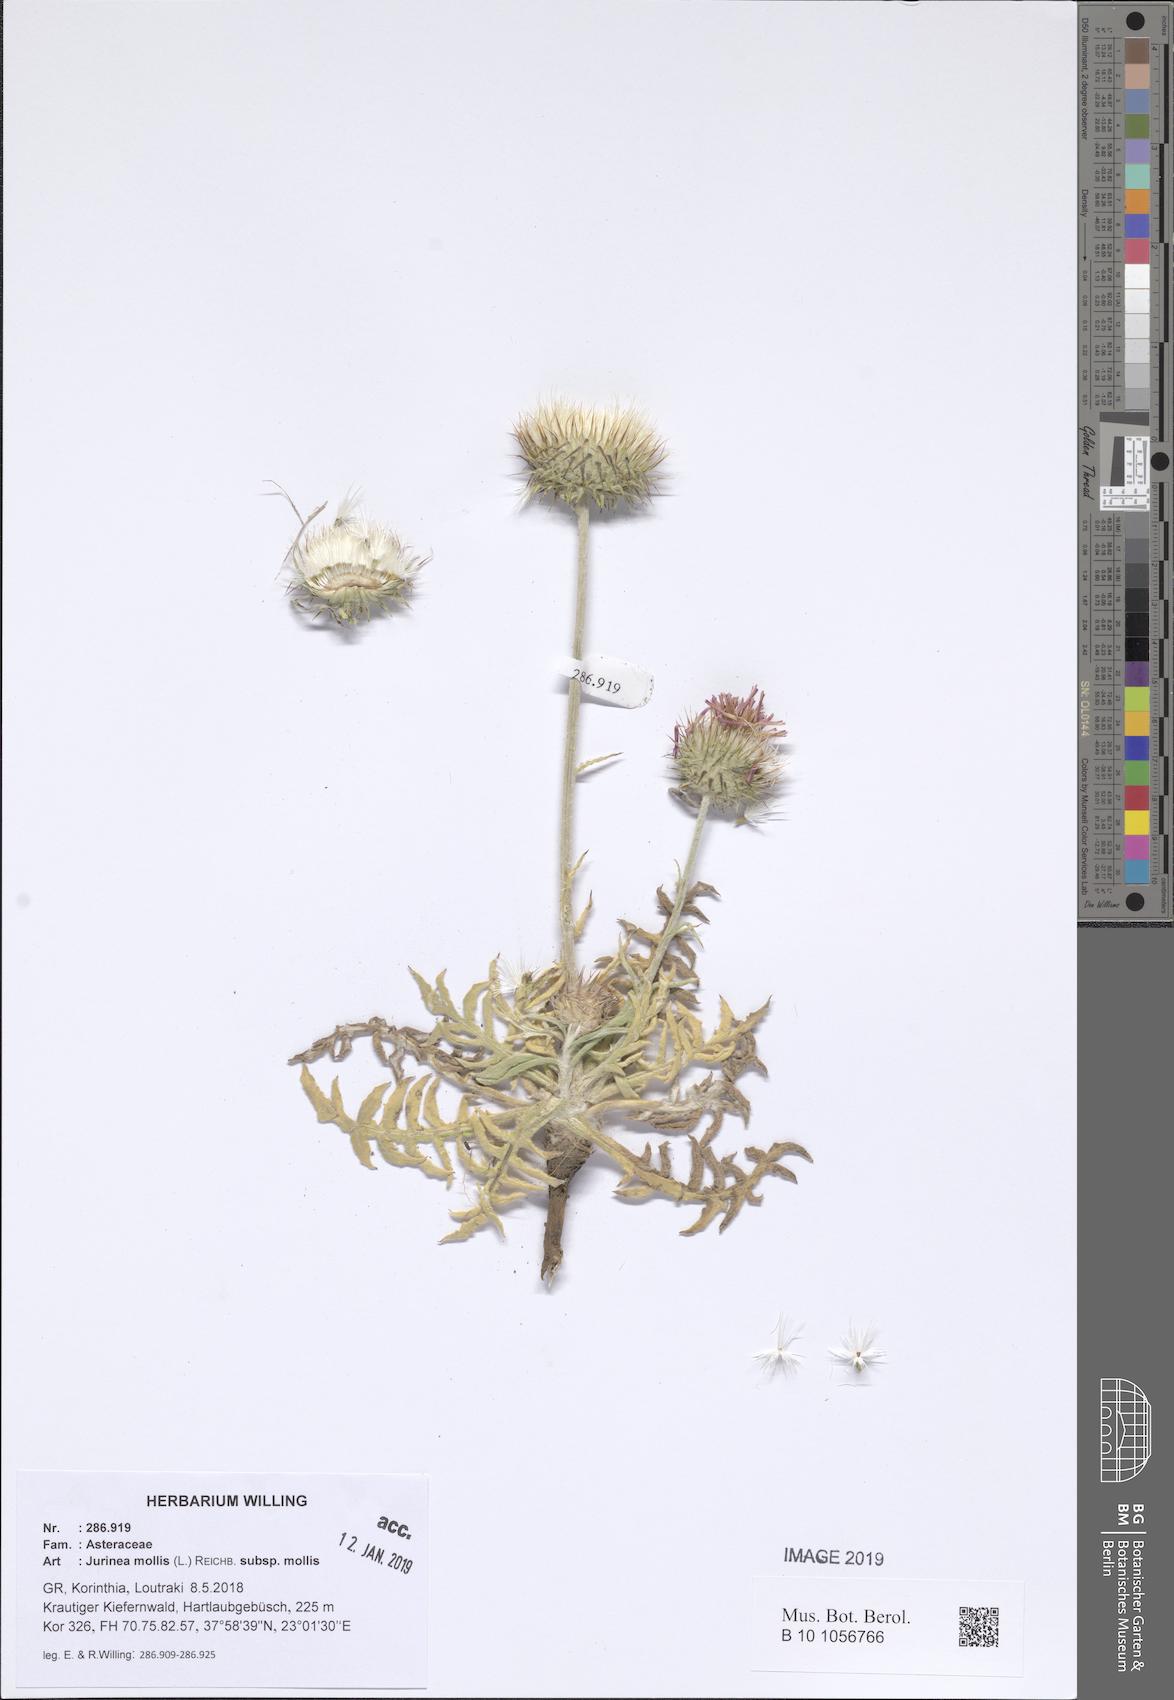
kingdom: Plantae
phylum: Tracheophyta
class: Magnoliopsida
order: Asterales
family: Asteraceae
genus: Jurinea
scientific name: Jurinea glycacantha
